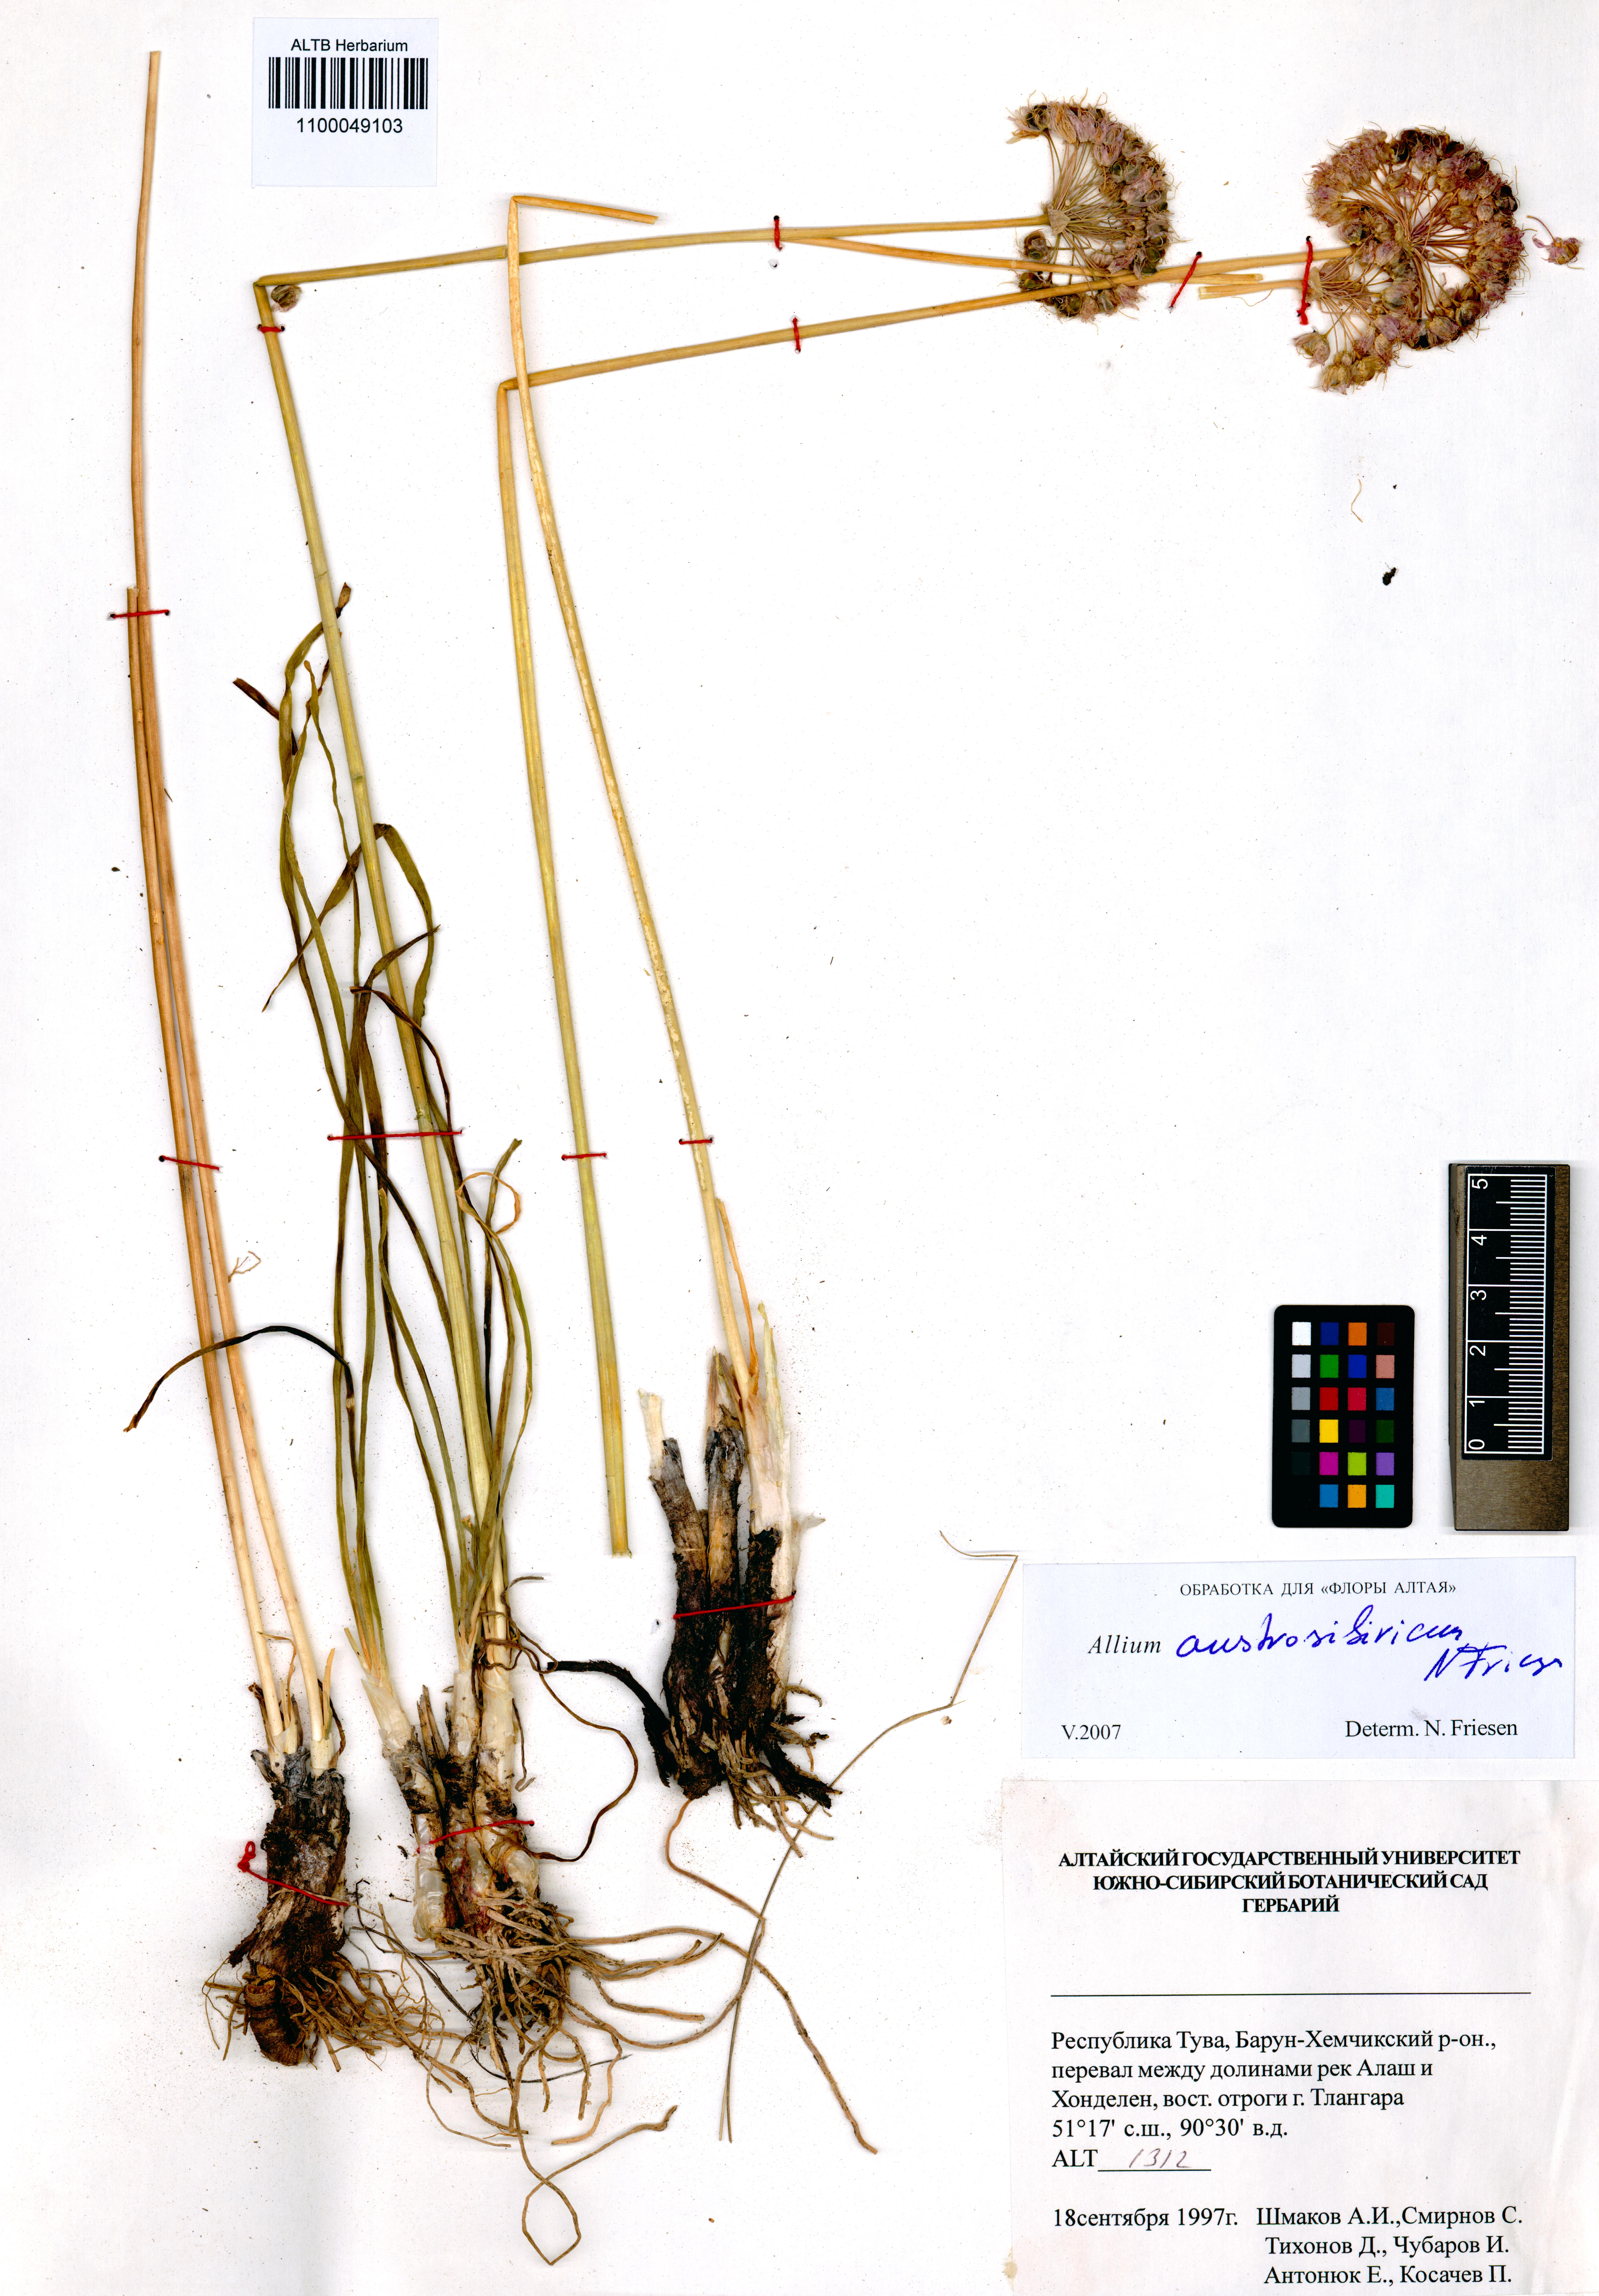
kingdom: Plantae
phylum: Tracheophyta
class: Liliopsida
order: Asparagales
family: Amaryllidaceae
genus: Allium
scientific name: Allium austrosibiricum
